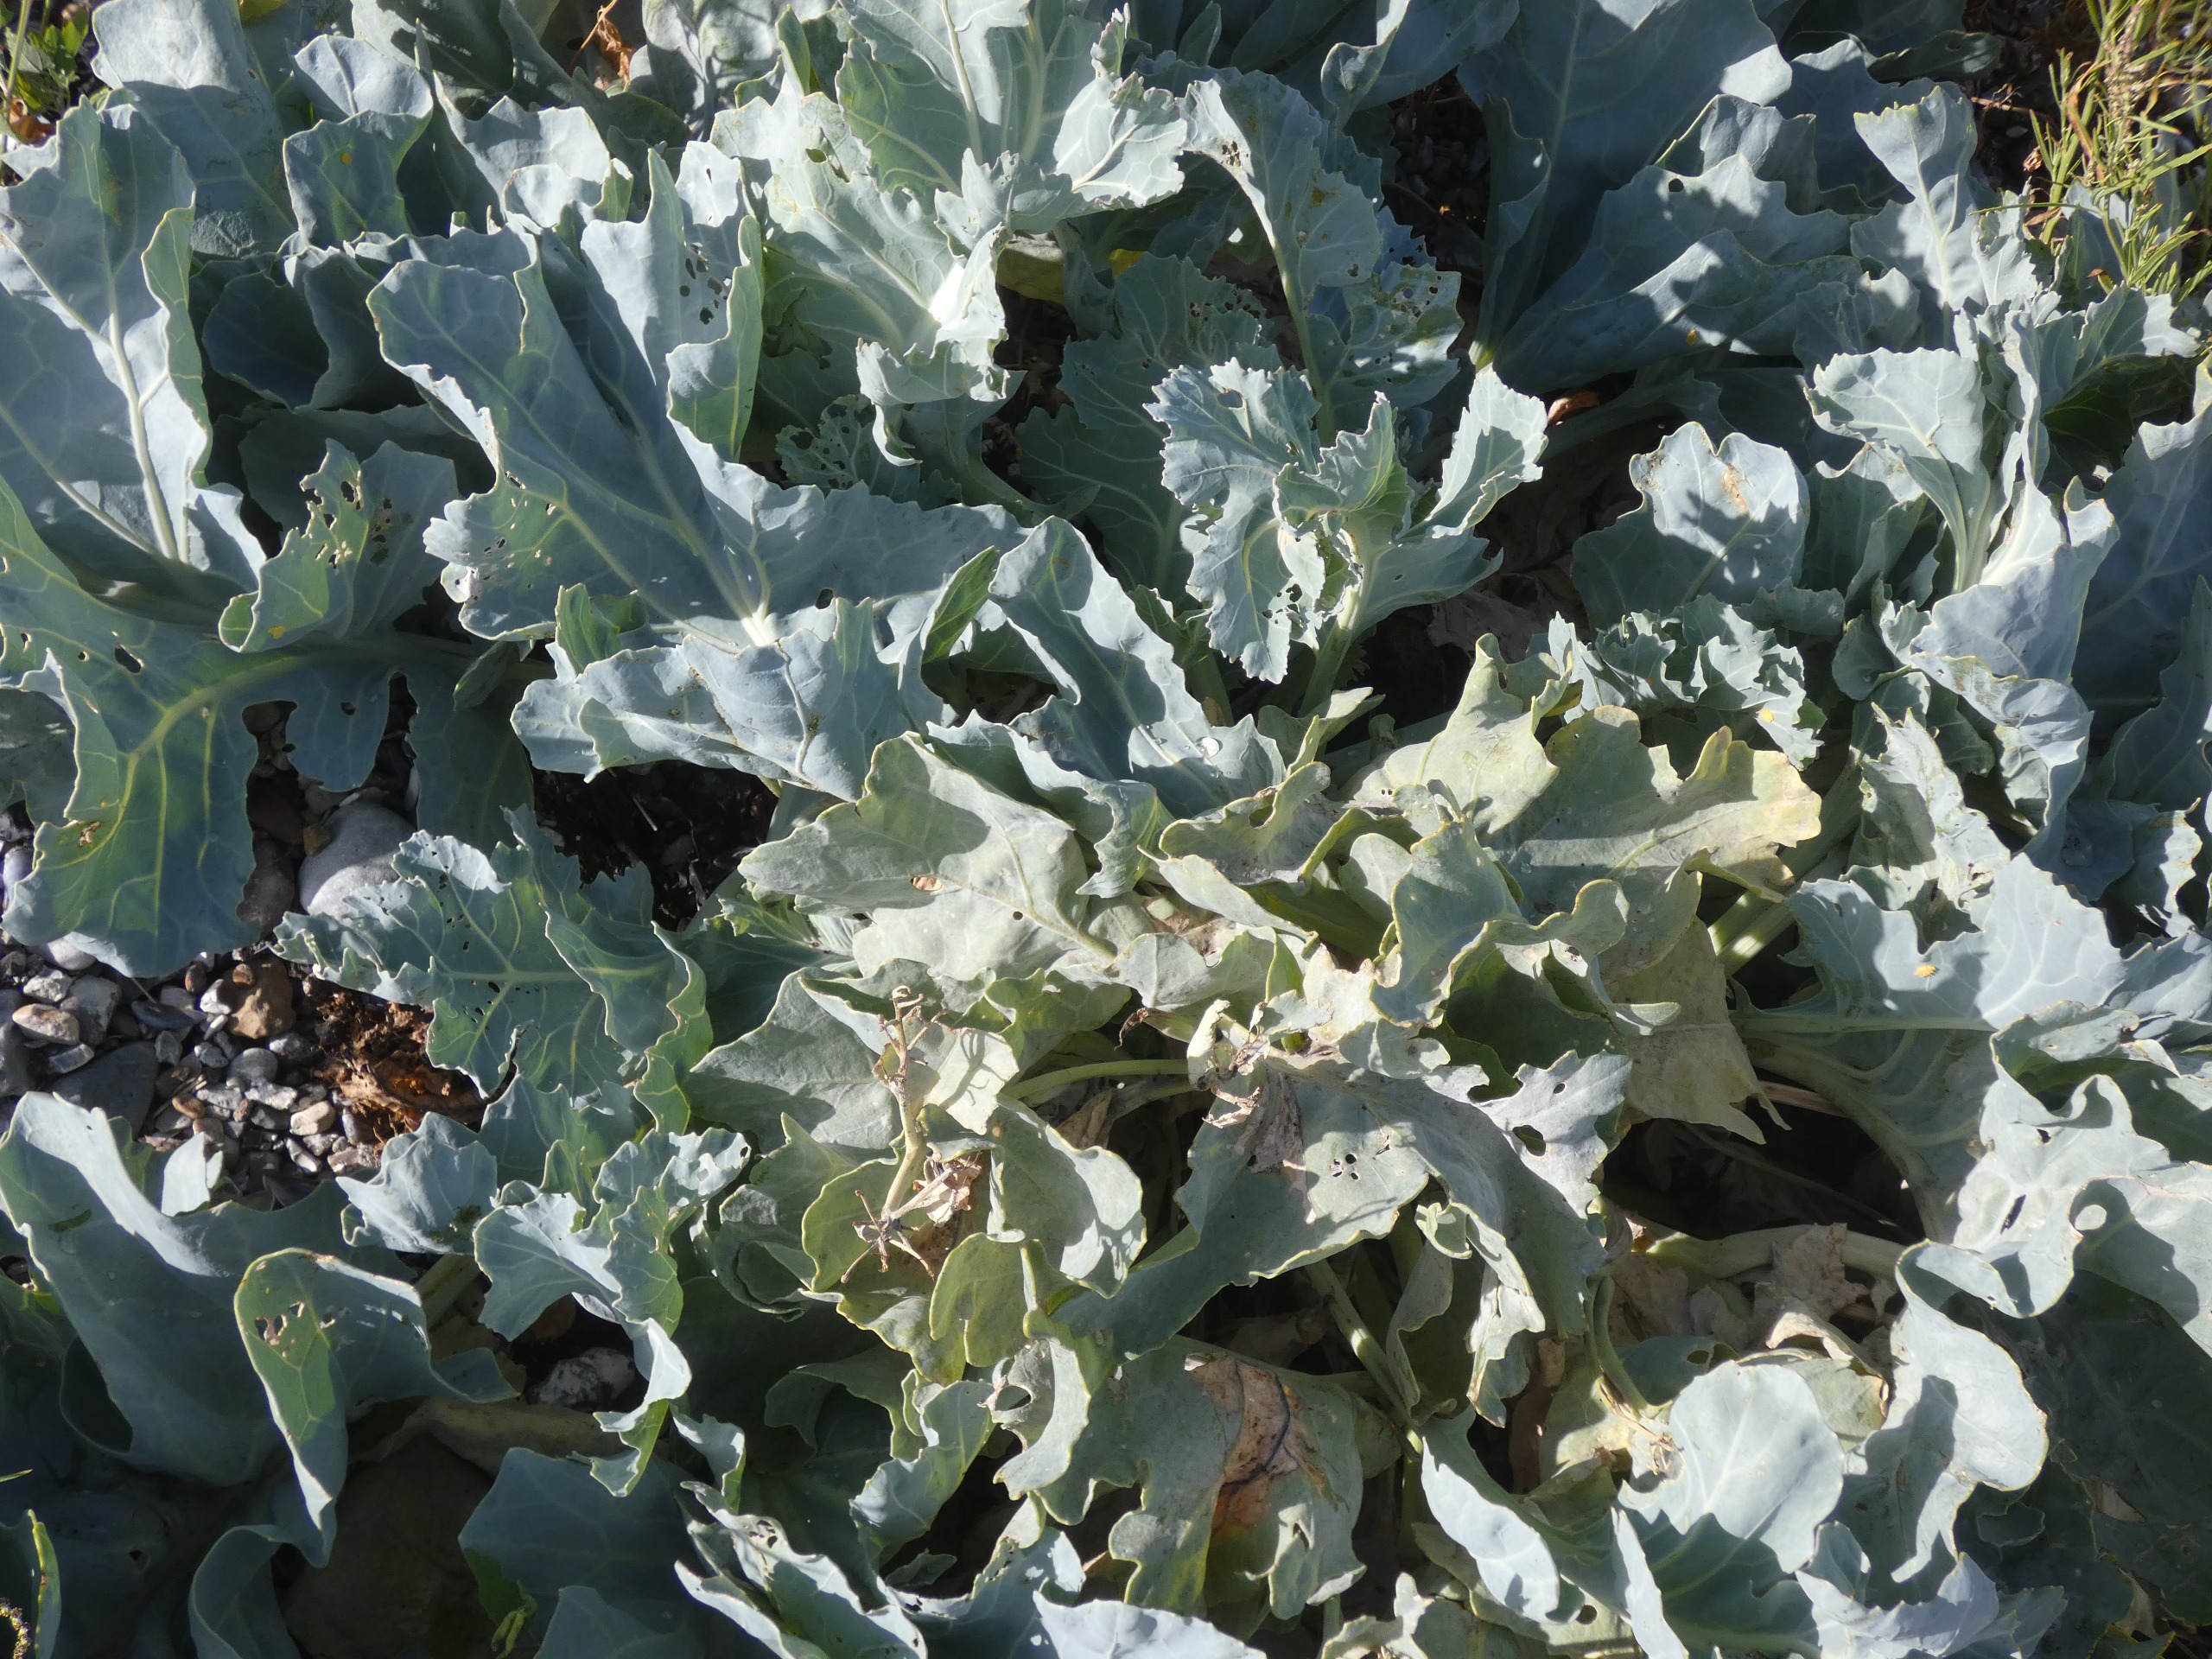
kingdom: Plantae
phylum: Tracheophyta
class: Magnoliopsida
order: Brassicales
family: Brassicaceae
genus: Crambe
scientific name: Crambe maritima
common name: Strandkål
